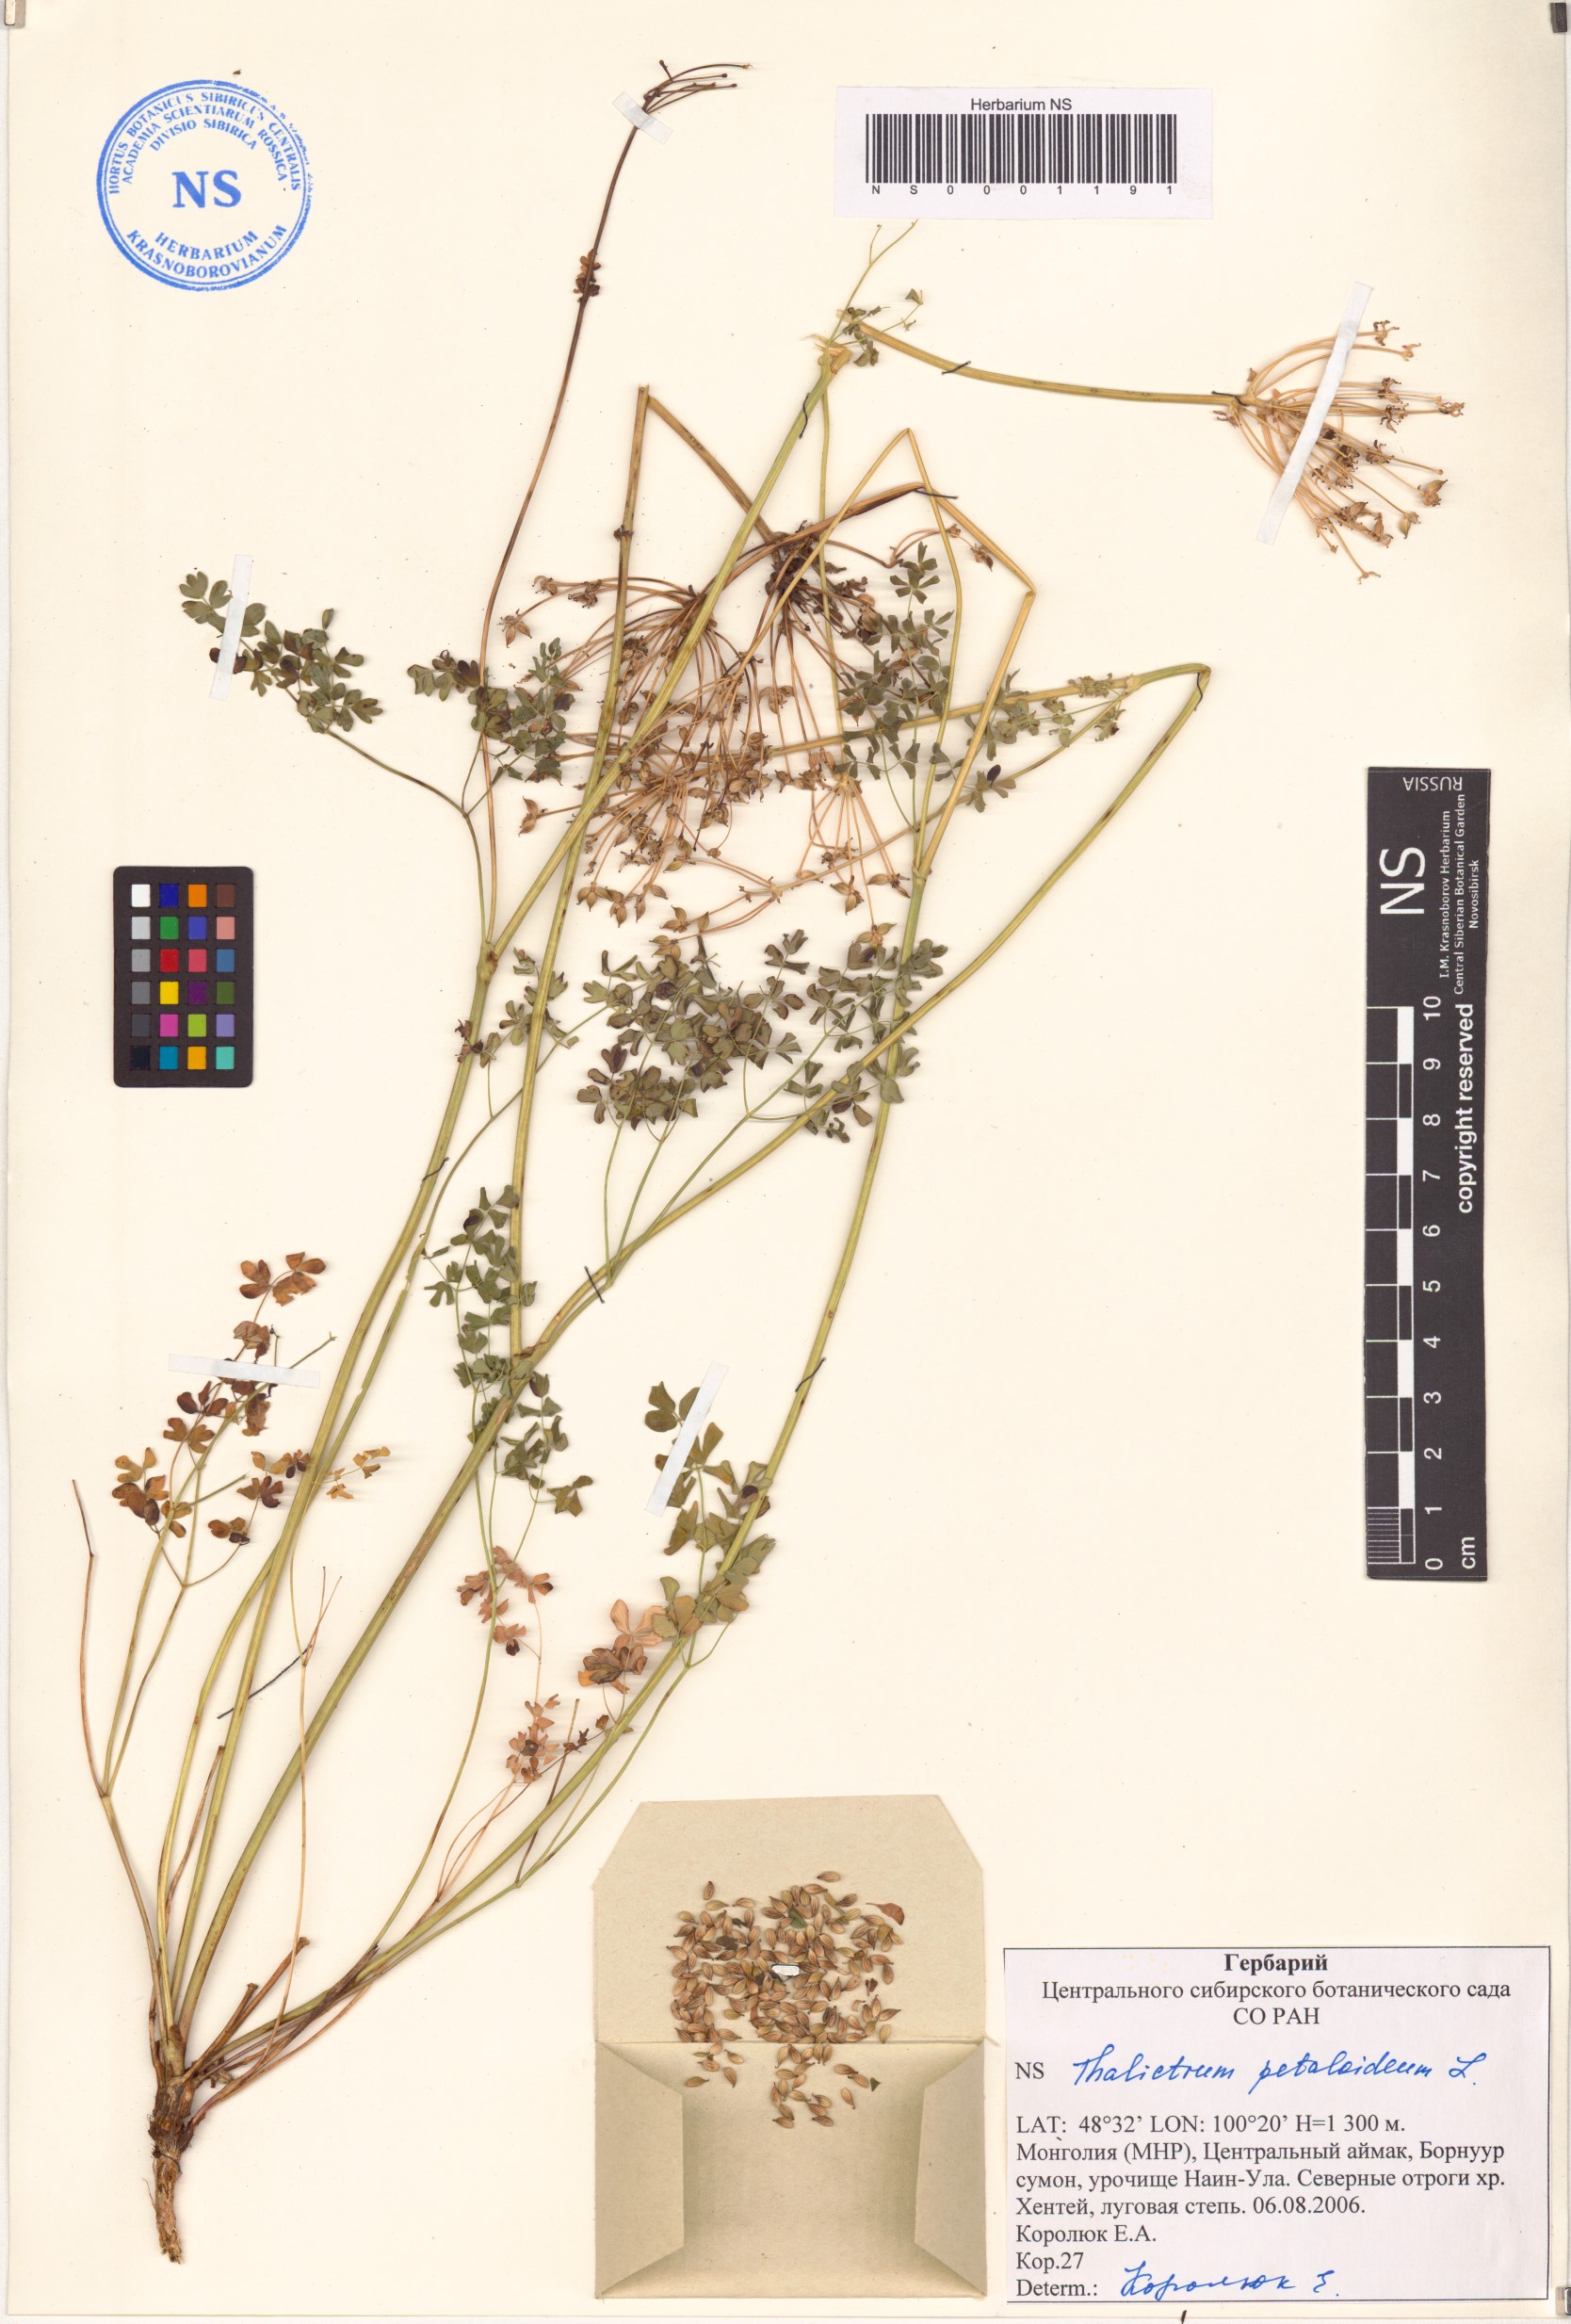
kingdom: Plantae
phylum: Tracheophyta
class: Magnoliopsida
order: Ranunculales
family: Ranunculaceae
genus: Thalictrum
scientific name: Thalictrum petaloideum
